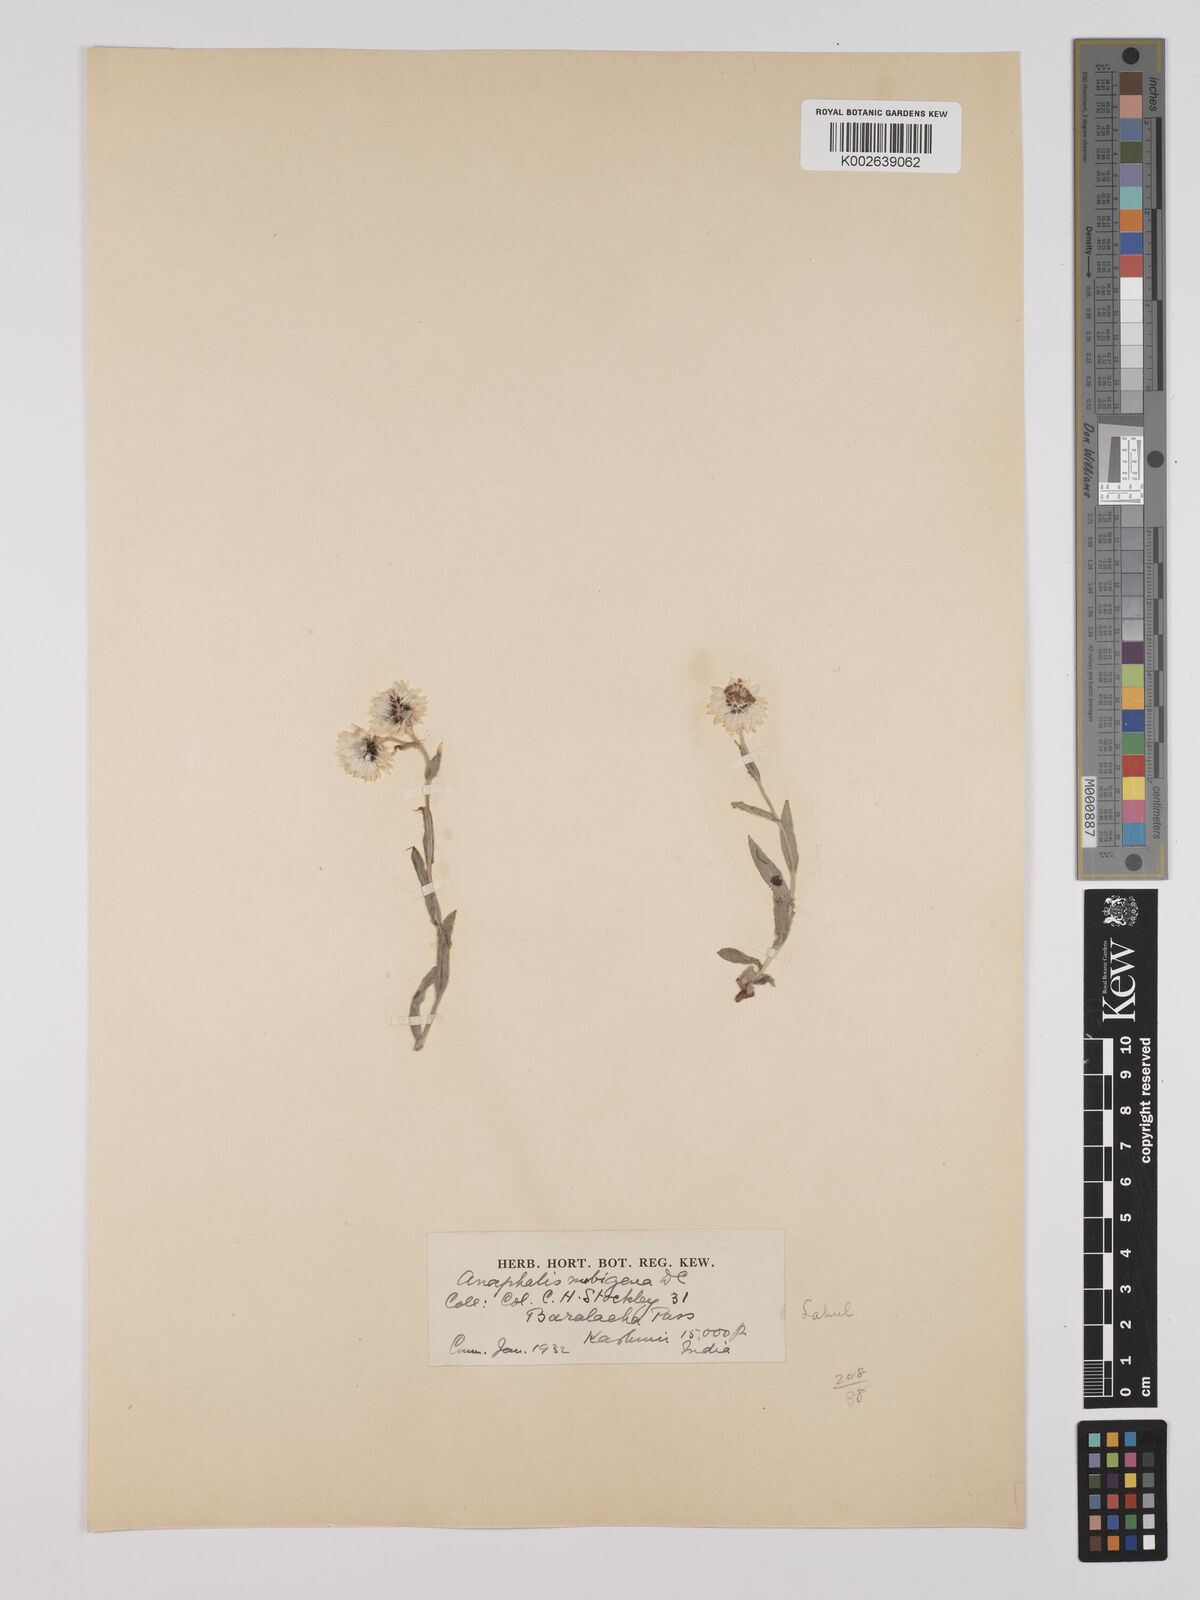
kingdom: Plantae
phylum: Tracheophyta
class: Magnoliopsida
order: Asterales
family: Asteraceae
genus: Anaphalis
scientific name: Anaphalis nepalensis
